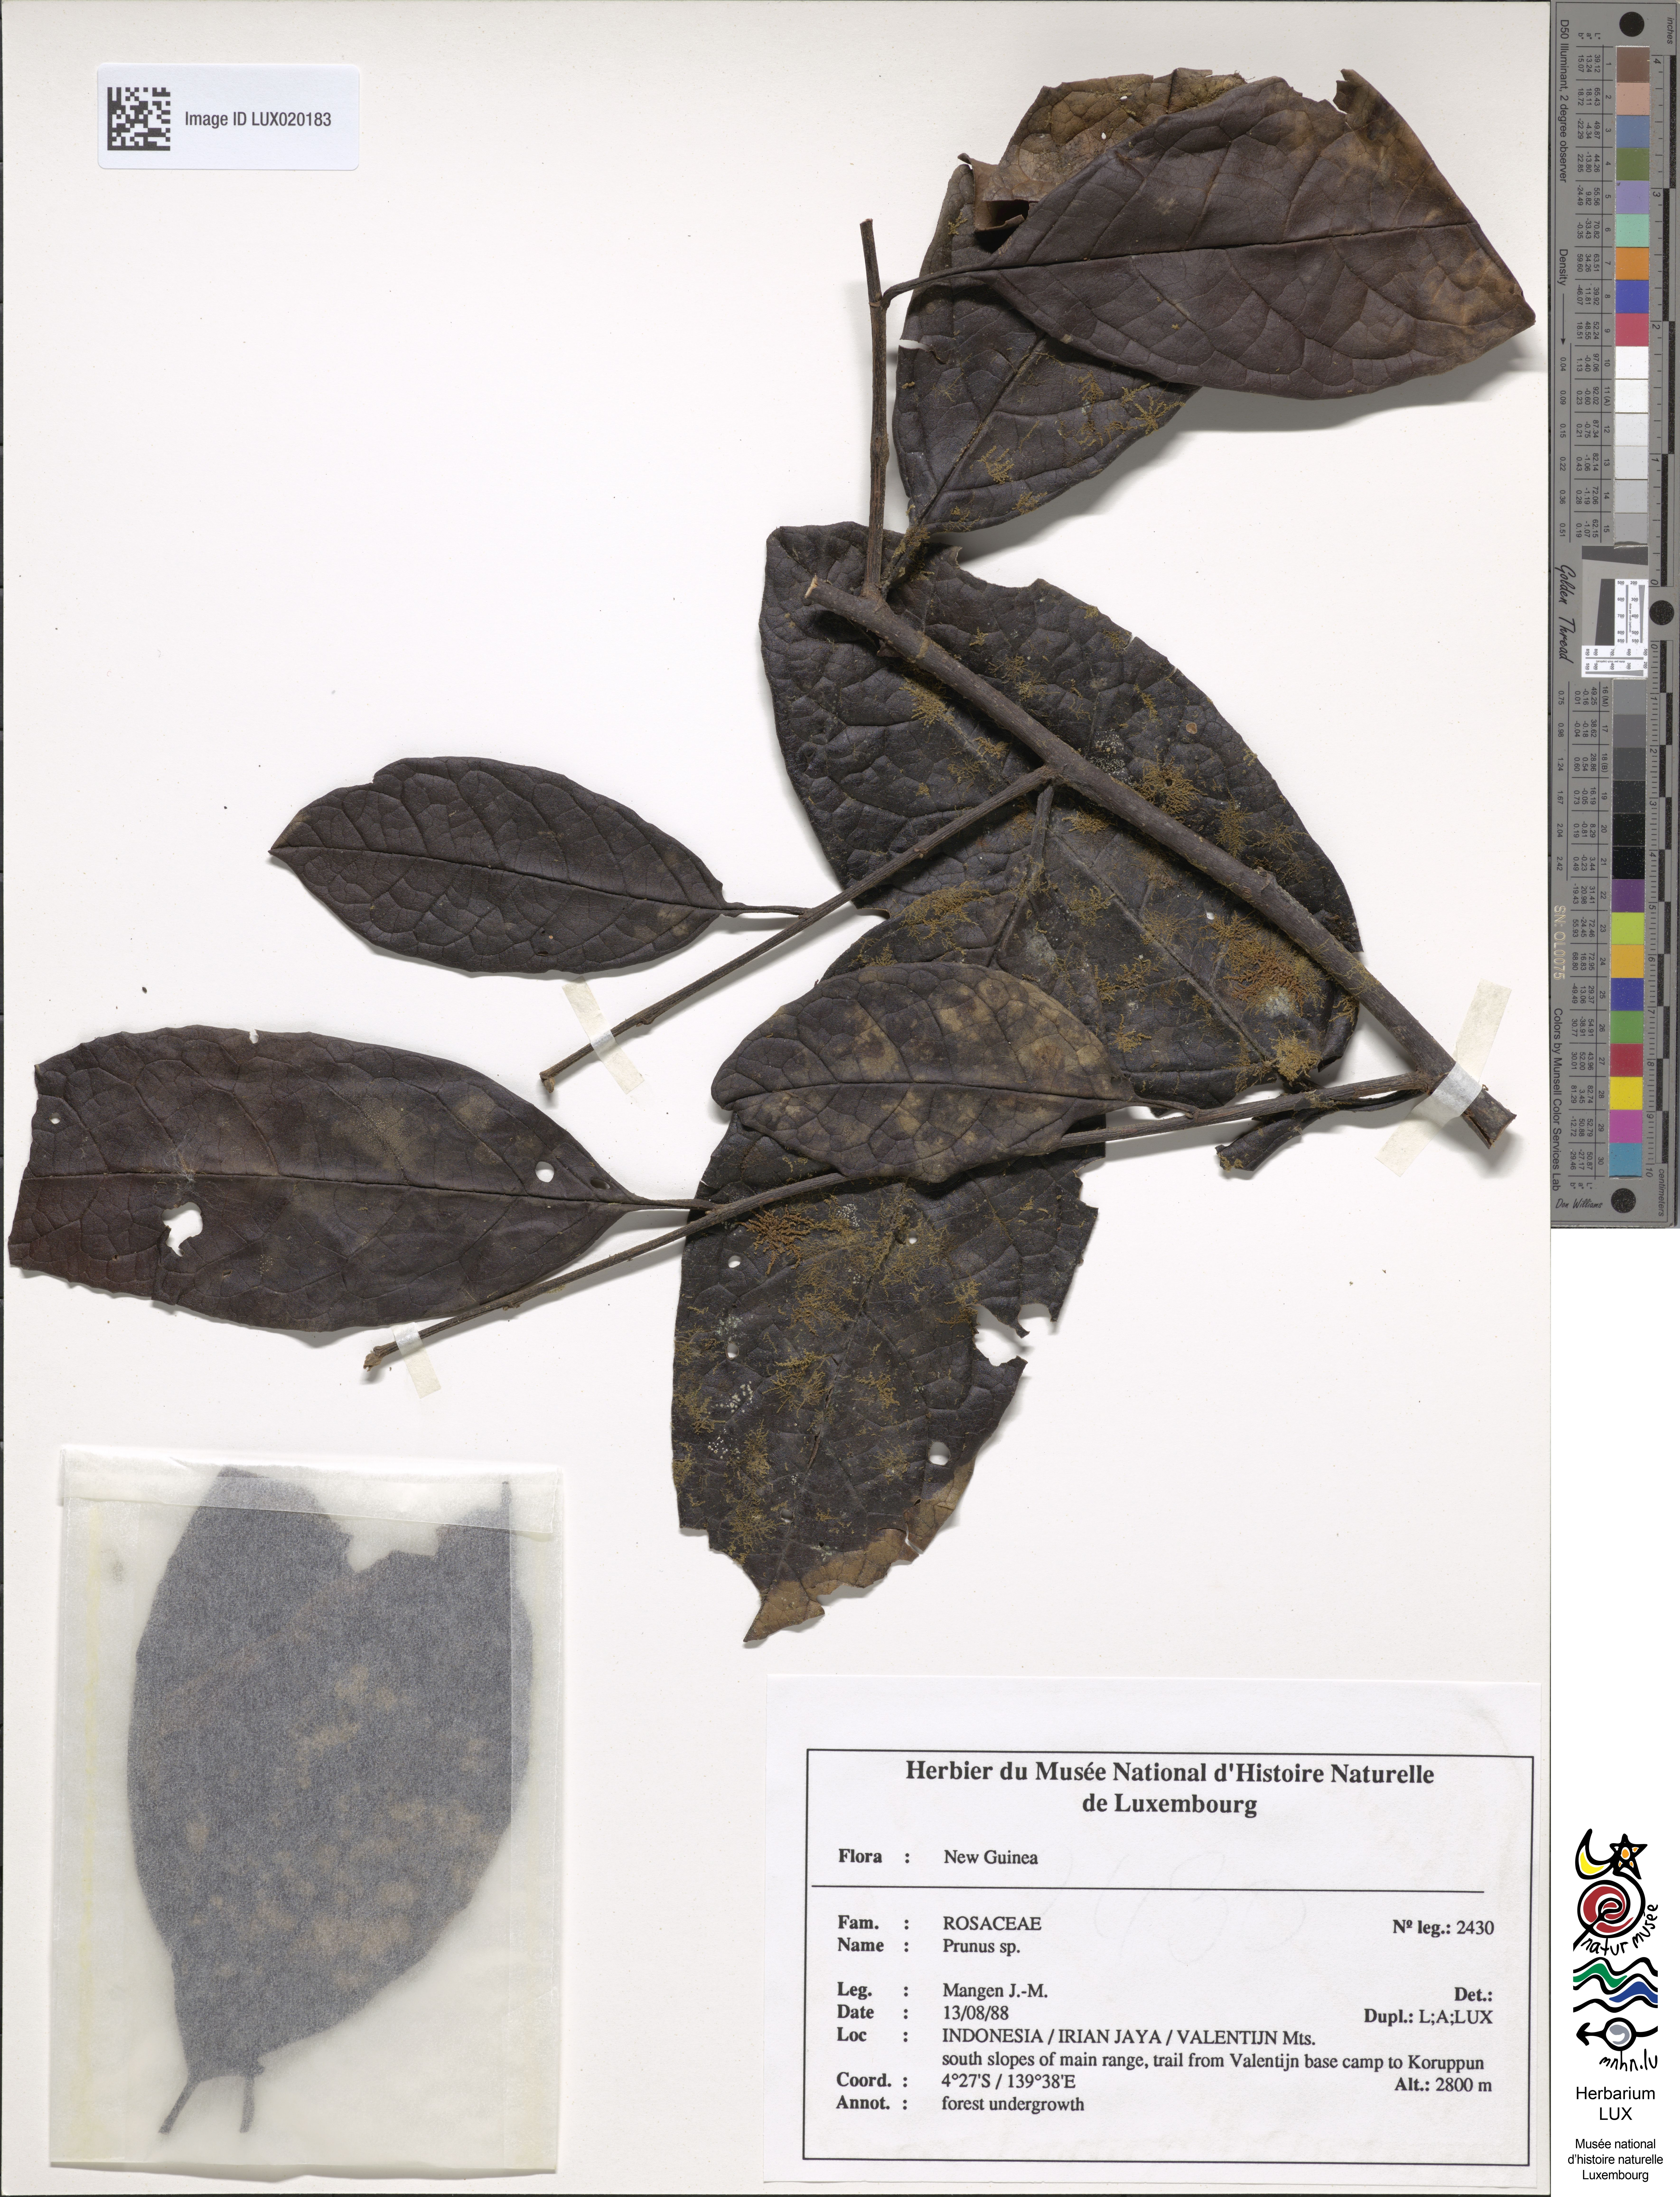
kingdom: Plantae
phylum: Tracheophyta
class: Magnoliopsida
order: Rosales
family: Rosaceae
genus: Prunus
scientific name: Prunus
